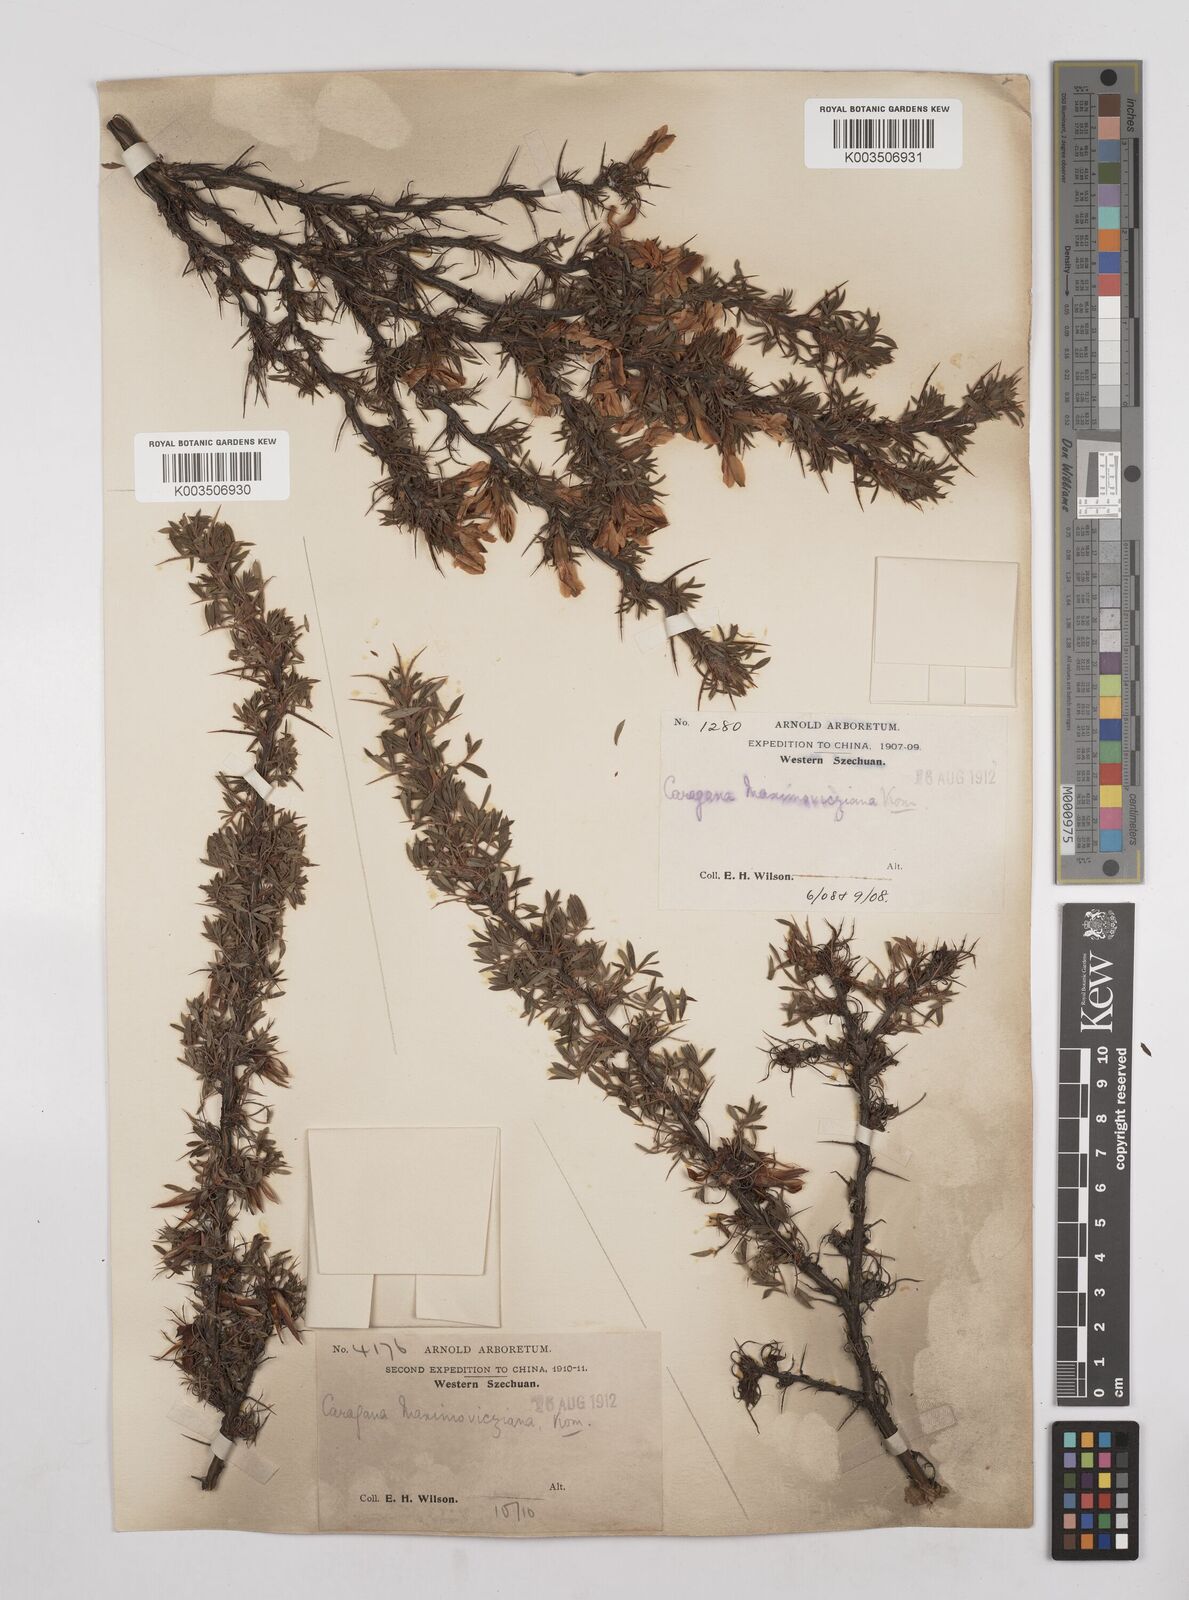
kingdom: Plantae
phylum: Tracheophyta
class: Magnoliopsida
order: Fabales
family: Fabaceae
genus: Caragana
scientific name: Caragana erinacea
